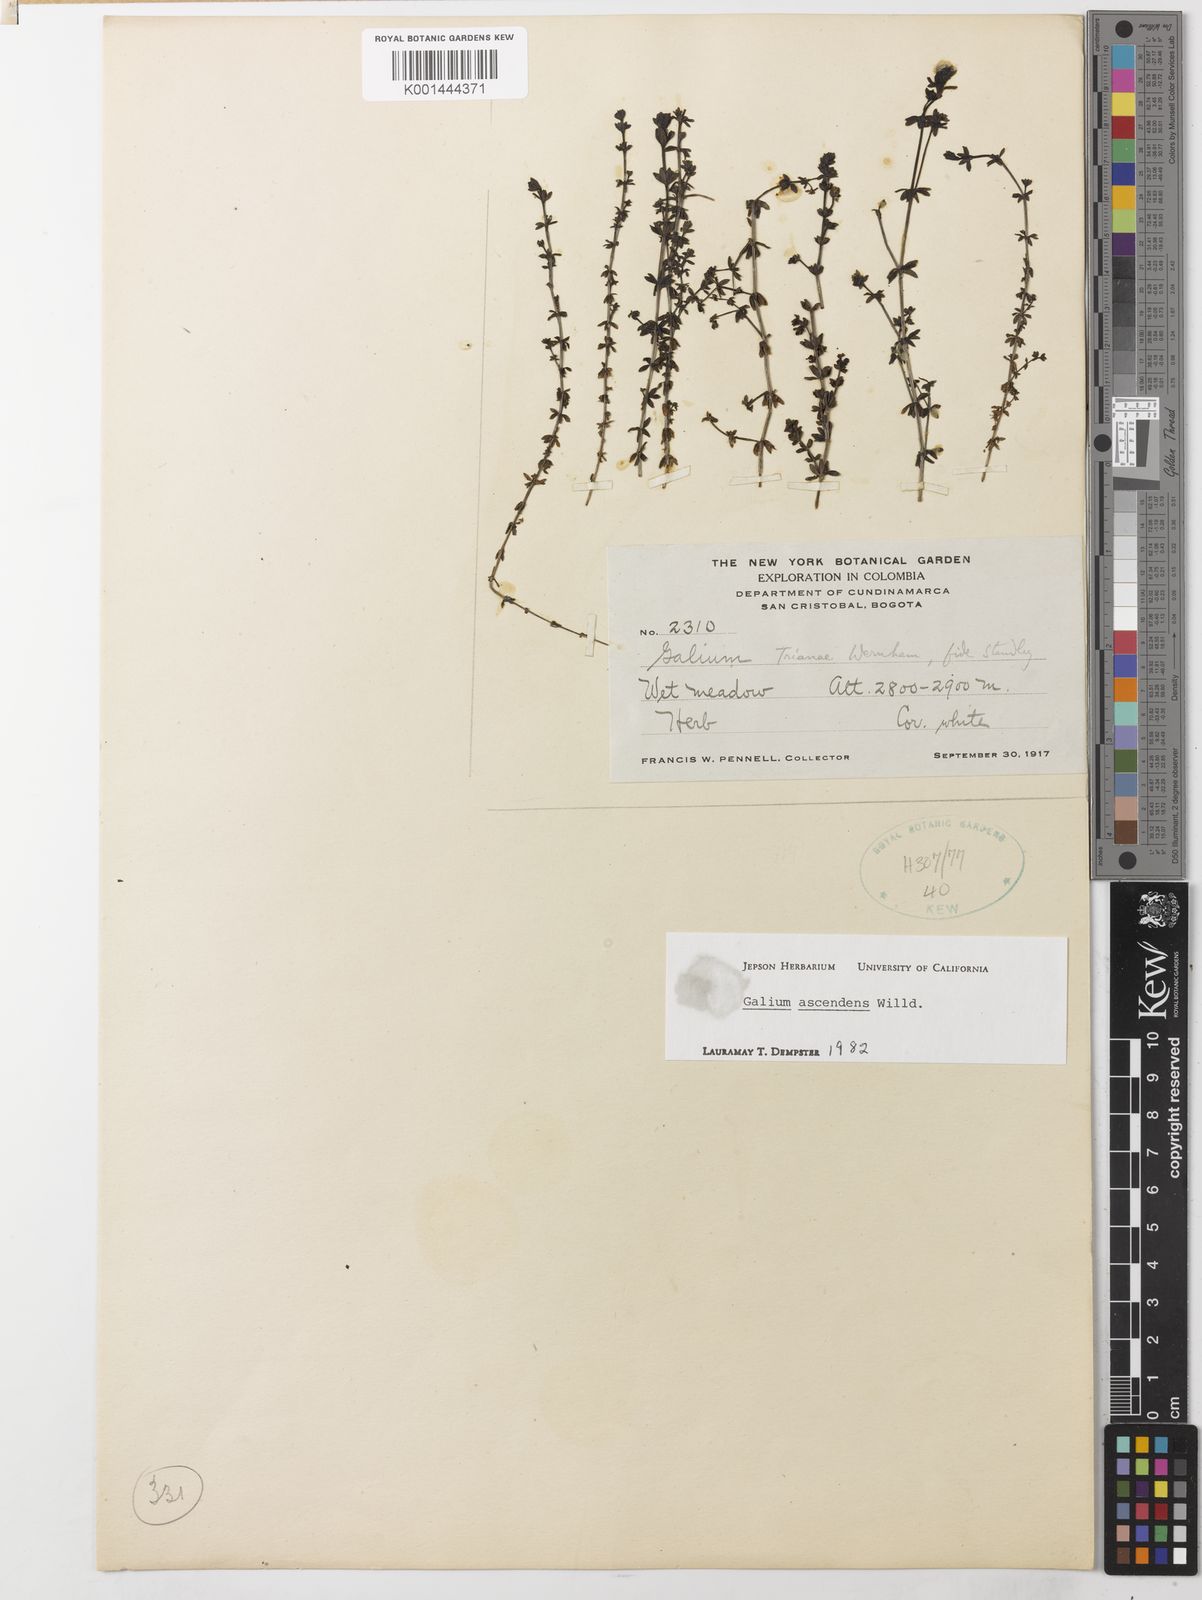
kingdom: Plantae
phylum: Tracheophyta
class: Magnoliopsida
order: Gentianales
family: Rubiaceae
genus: Galium
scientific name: Galium ascendens
